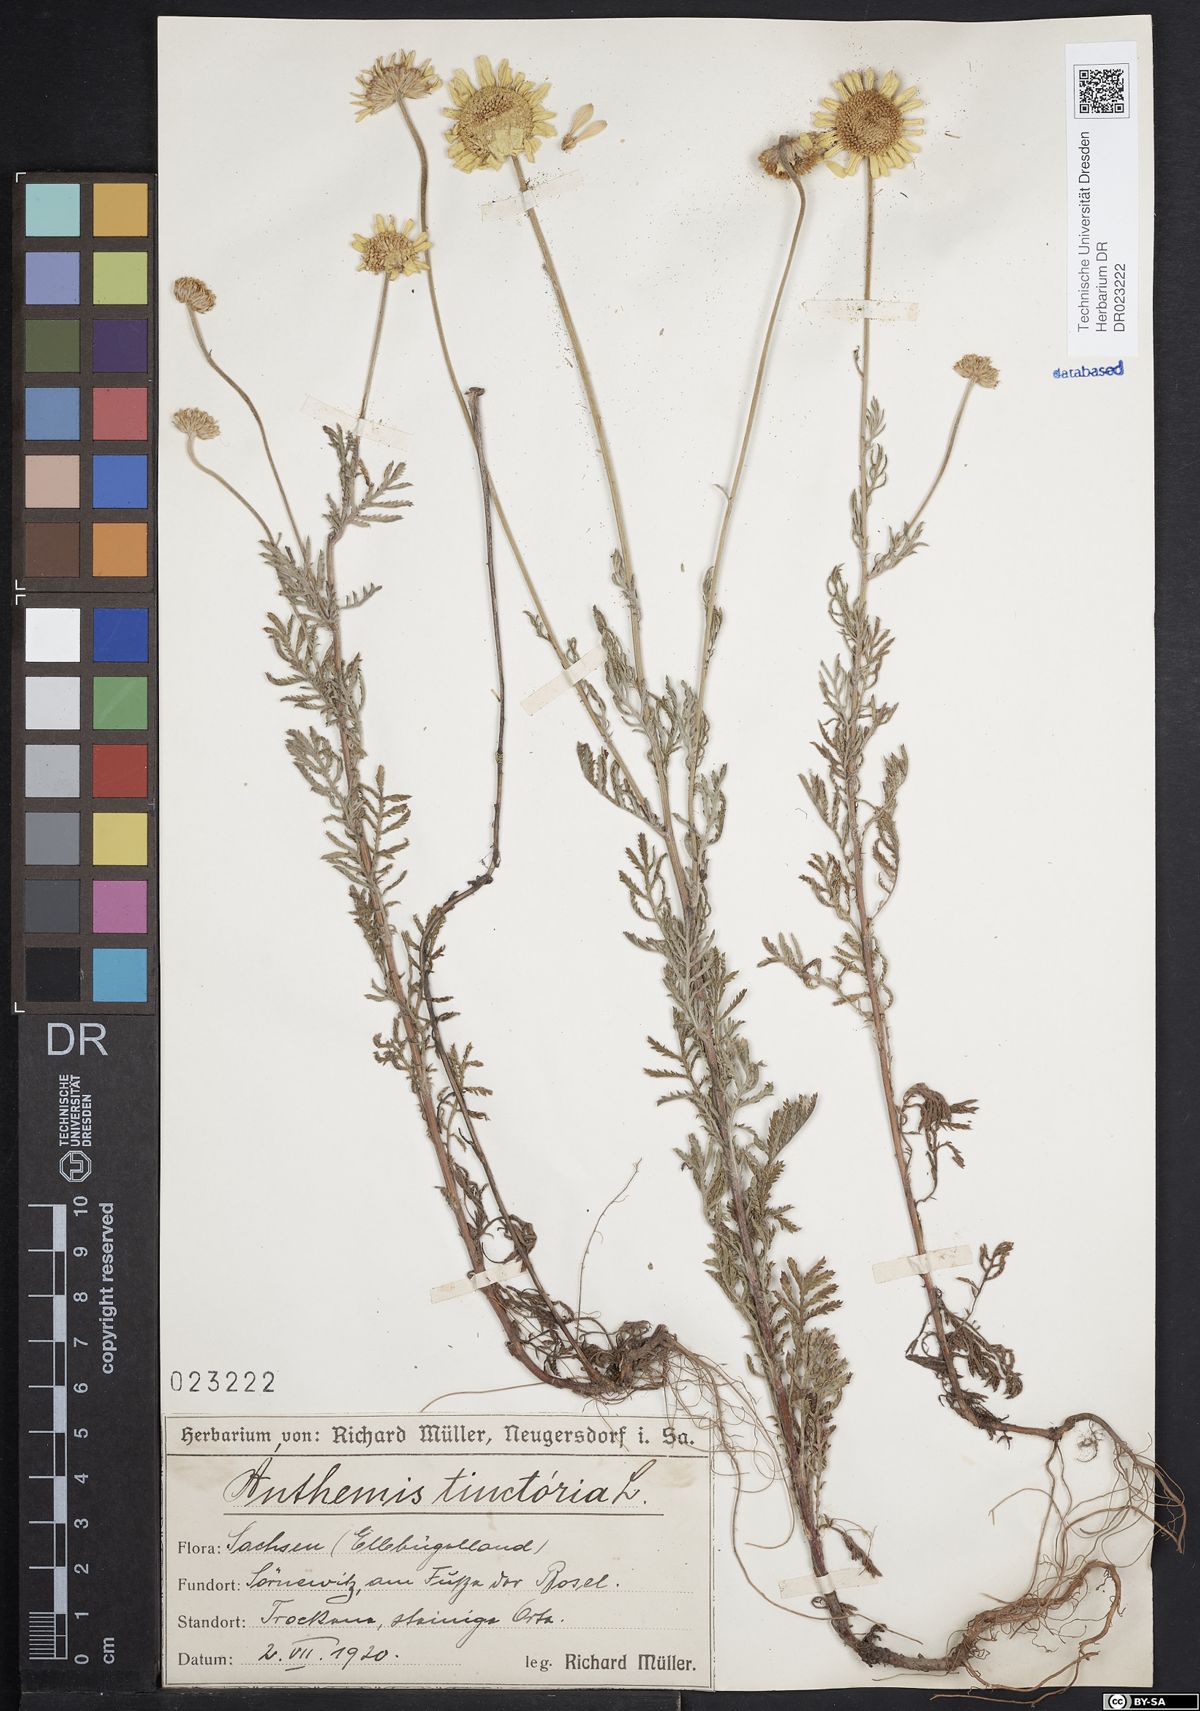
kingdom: Plantae
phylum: Tracheophyta
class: Magnoliopsida
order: Asterales
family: Asteraceae
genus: Cota
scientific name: Cota tinctoria
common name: Golden chamomile
